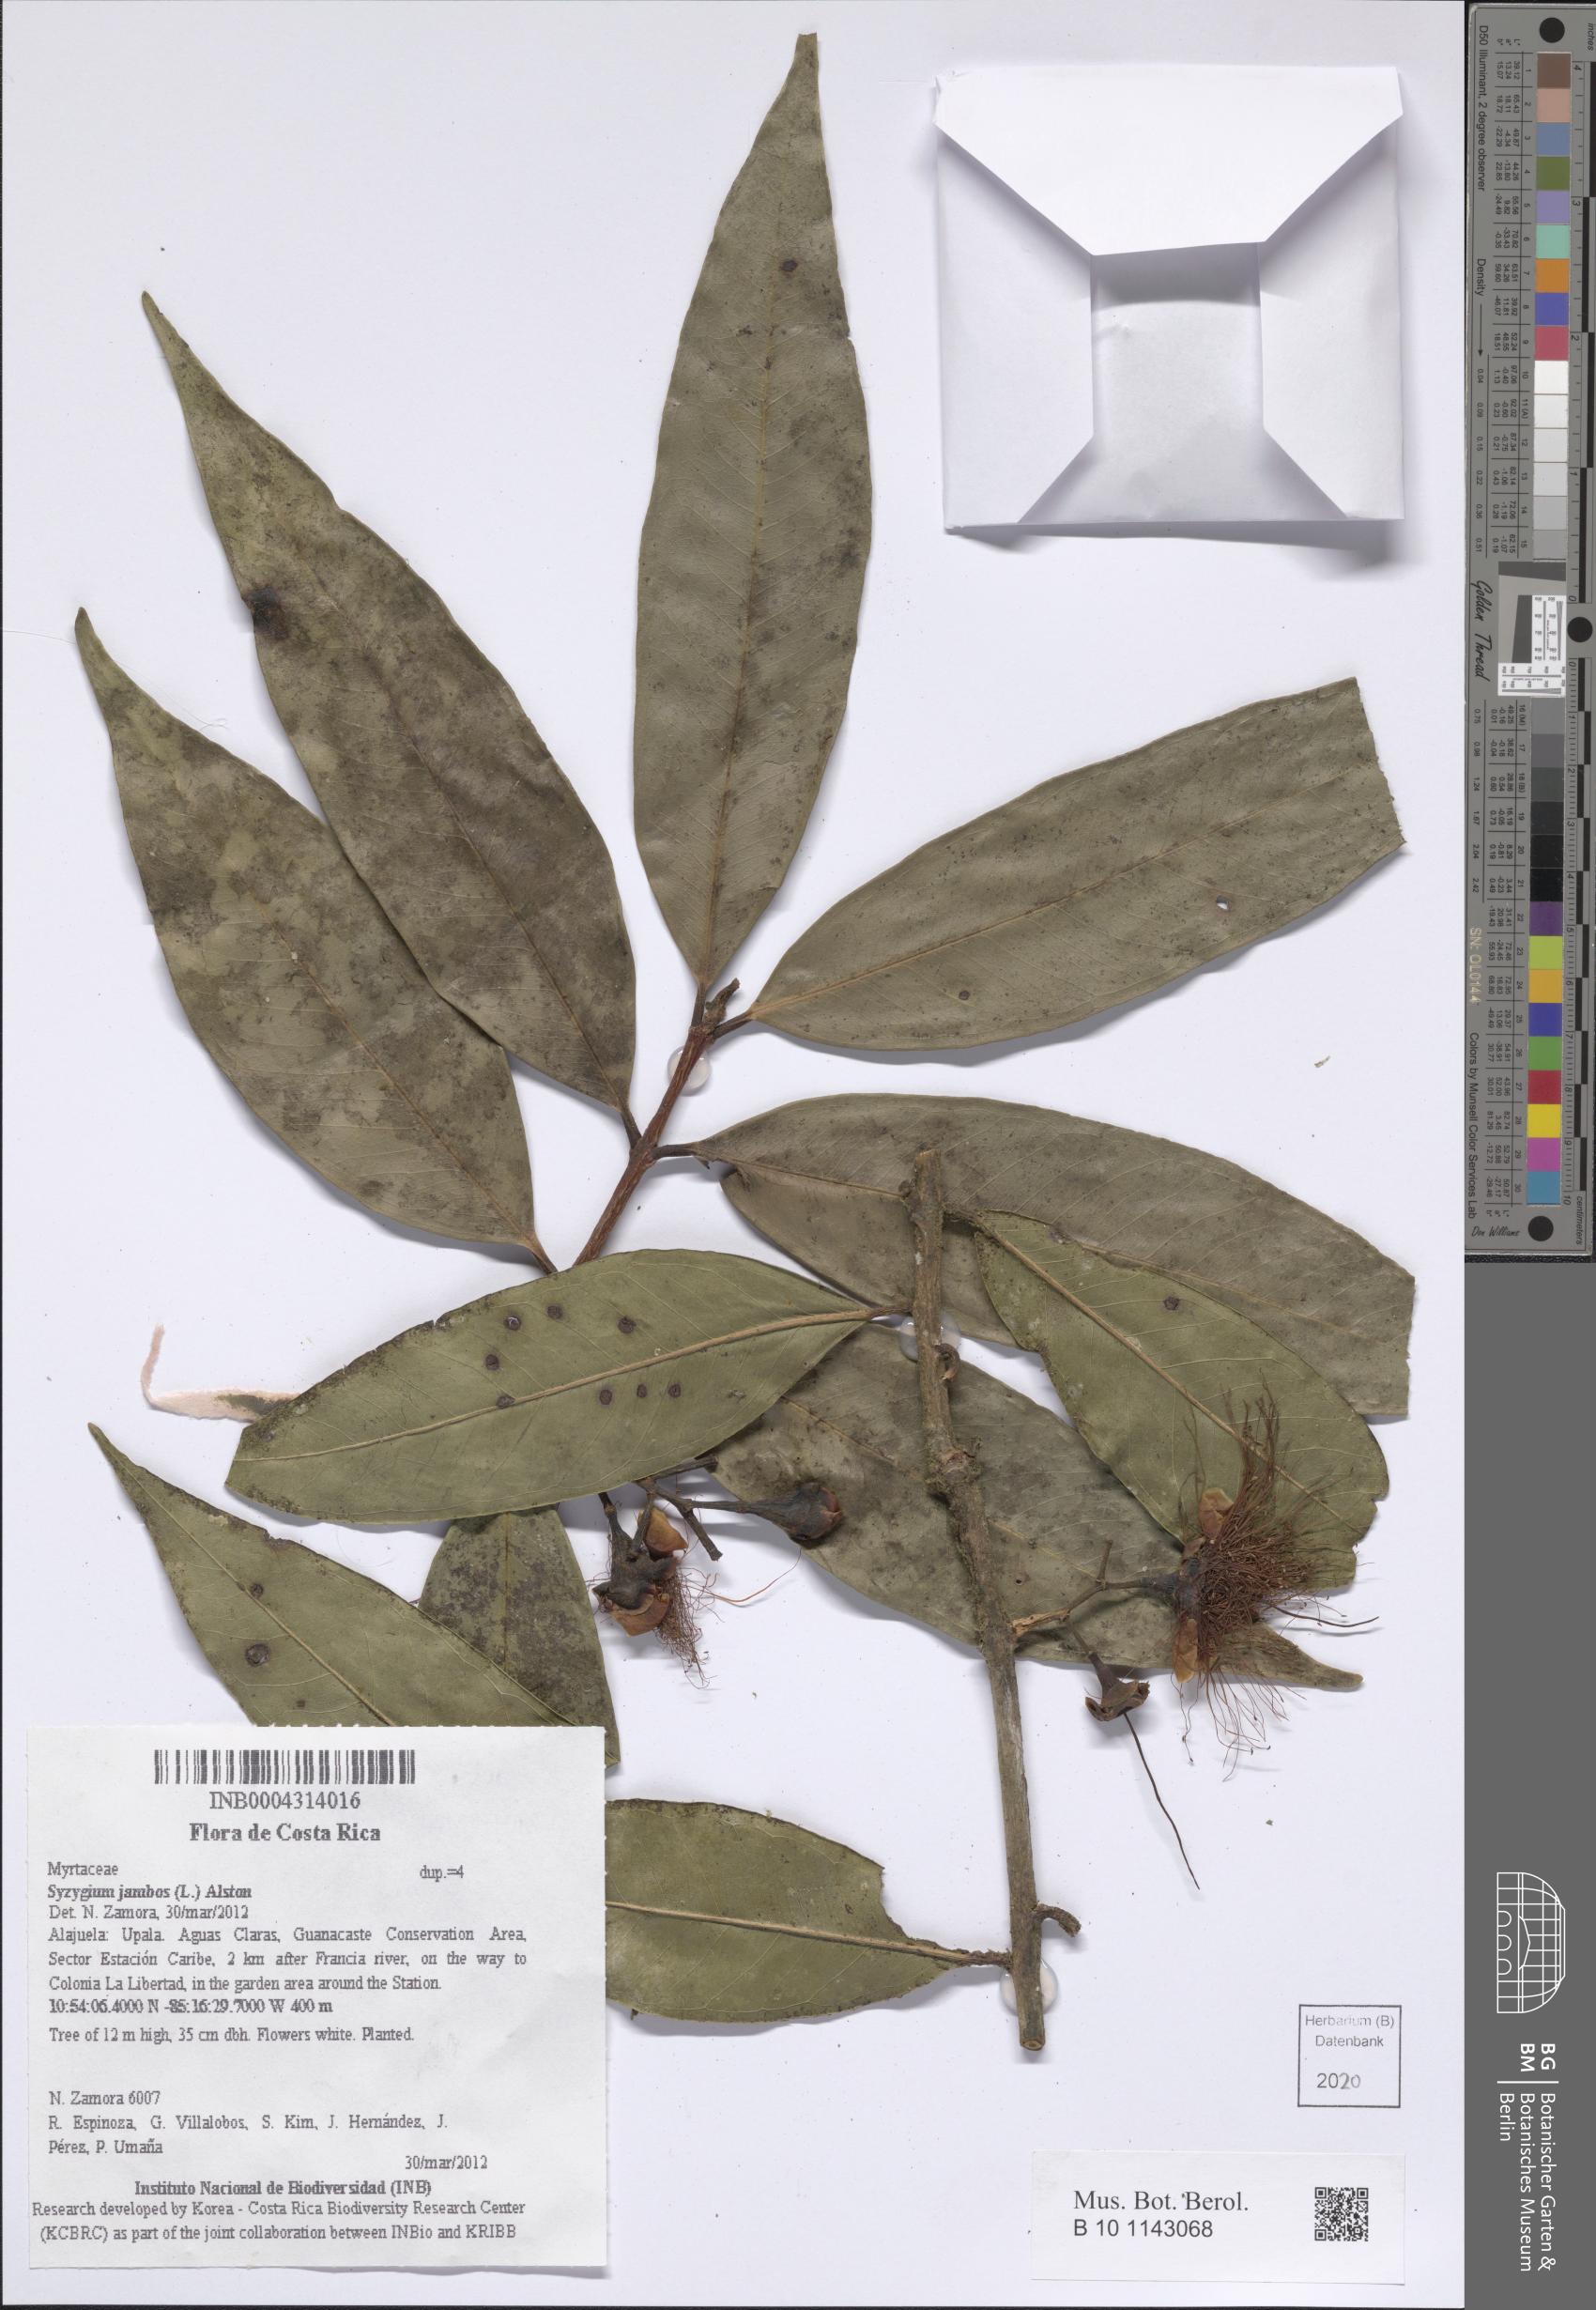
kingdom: Plantae
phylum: Tracheophyta
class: Magnoliopsida
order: Myrtales
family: Myrtaceae
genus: Syzygium
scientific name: Syzygium jambos
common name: Malabar plum
